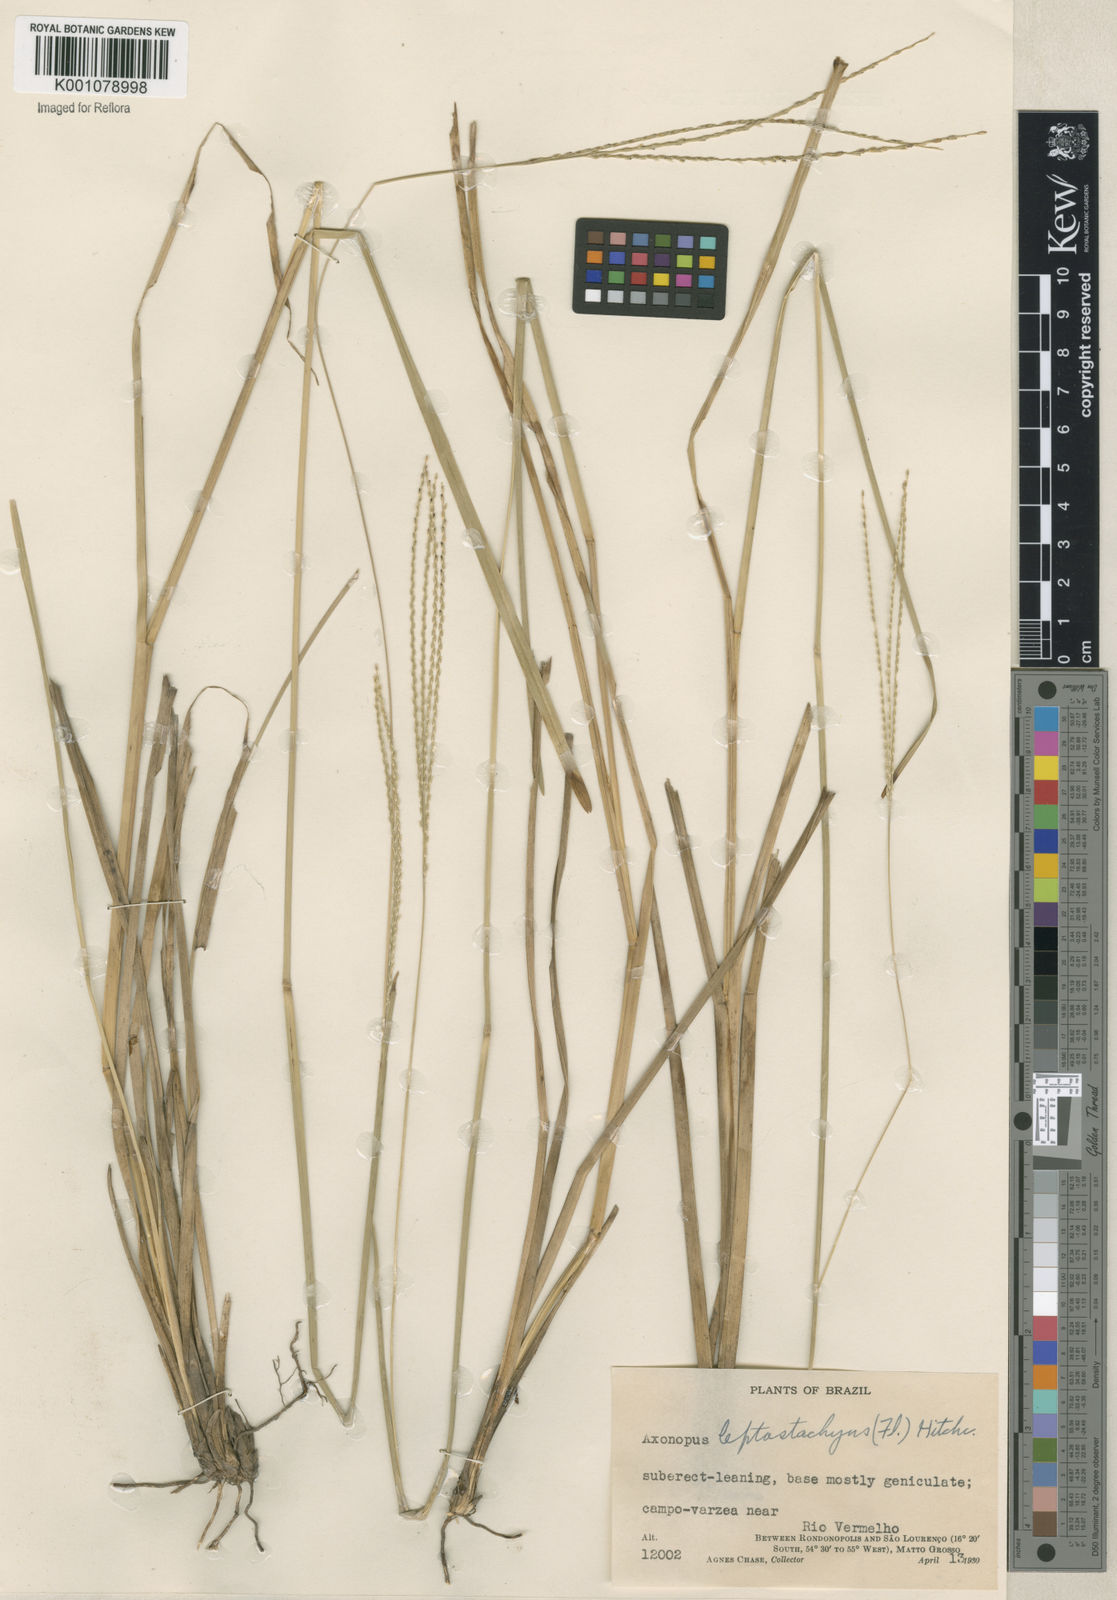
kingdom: Plantae
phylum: Tracheophyta
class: Liliopsida
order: Poales
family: Poaceae
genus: Axonopus
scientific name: Axonopus
